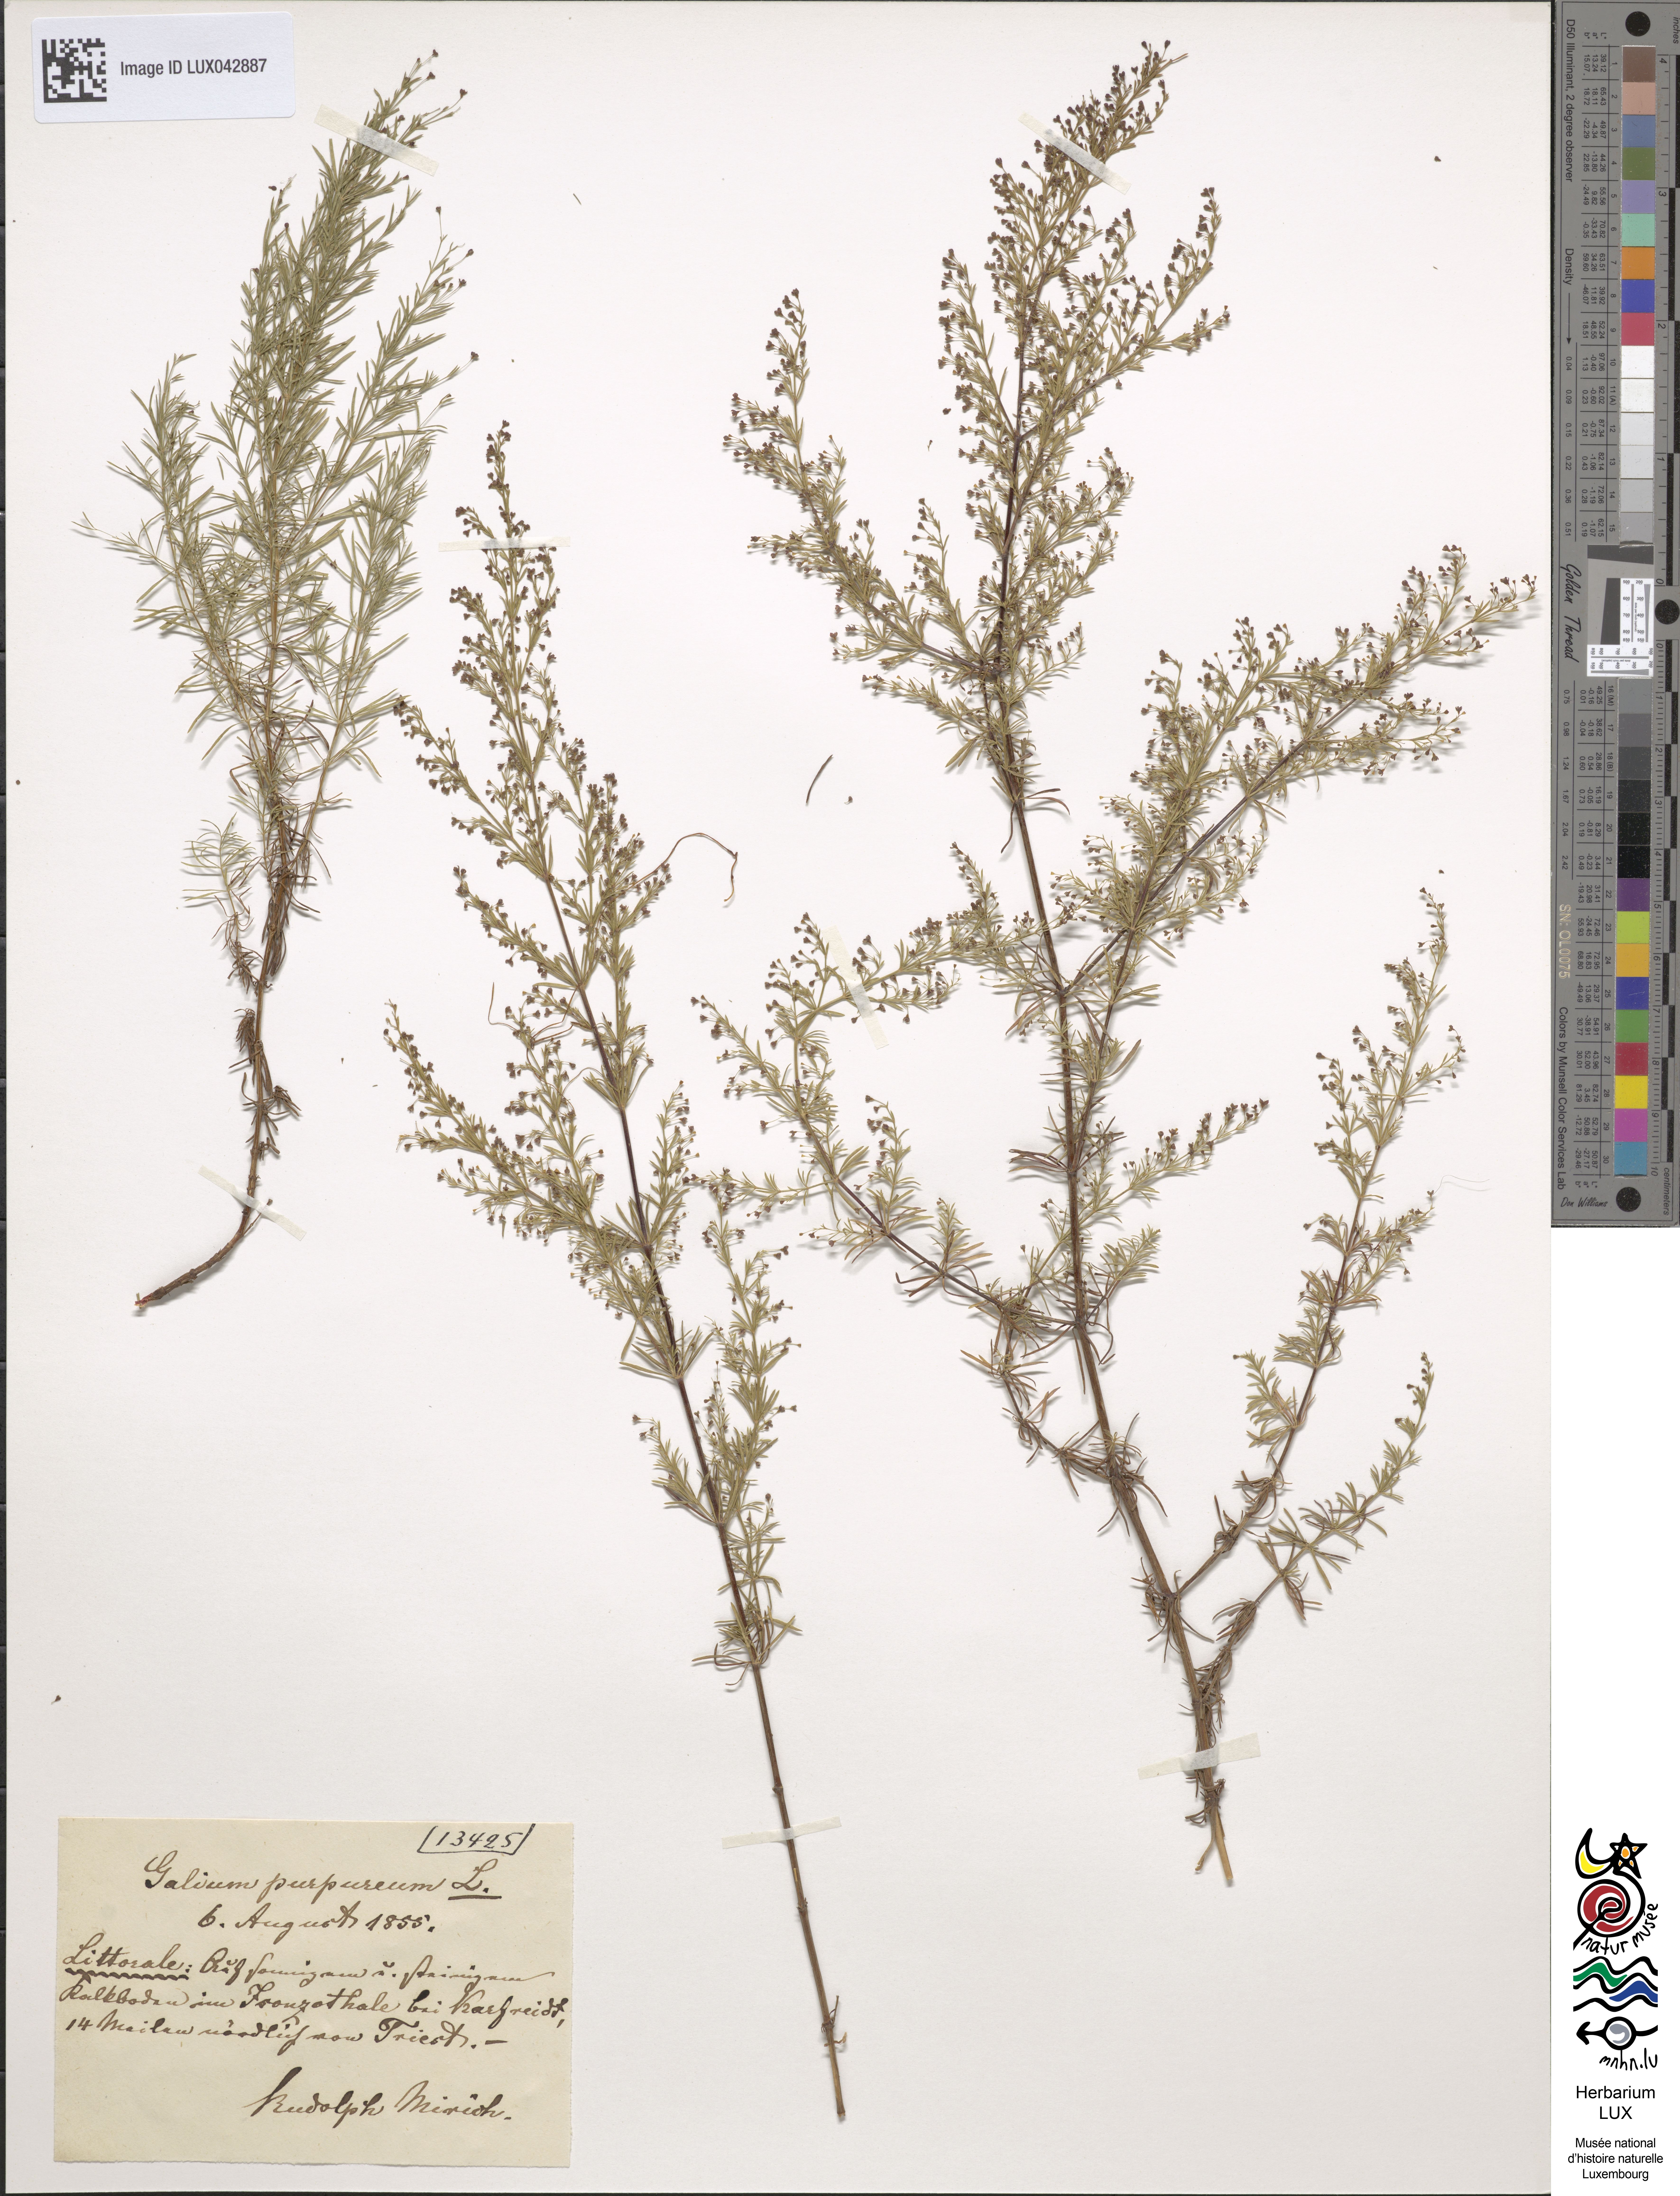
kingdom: Plantae
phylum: Tracheophyta
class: Magnoliopsida
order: Gentianales
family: Rubiaceae
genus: Thliphthisa
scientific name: Thliphthisa purpurea
